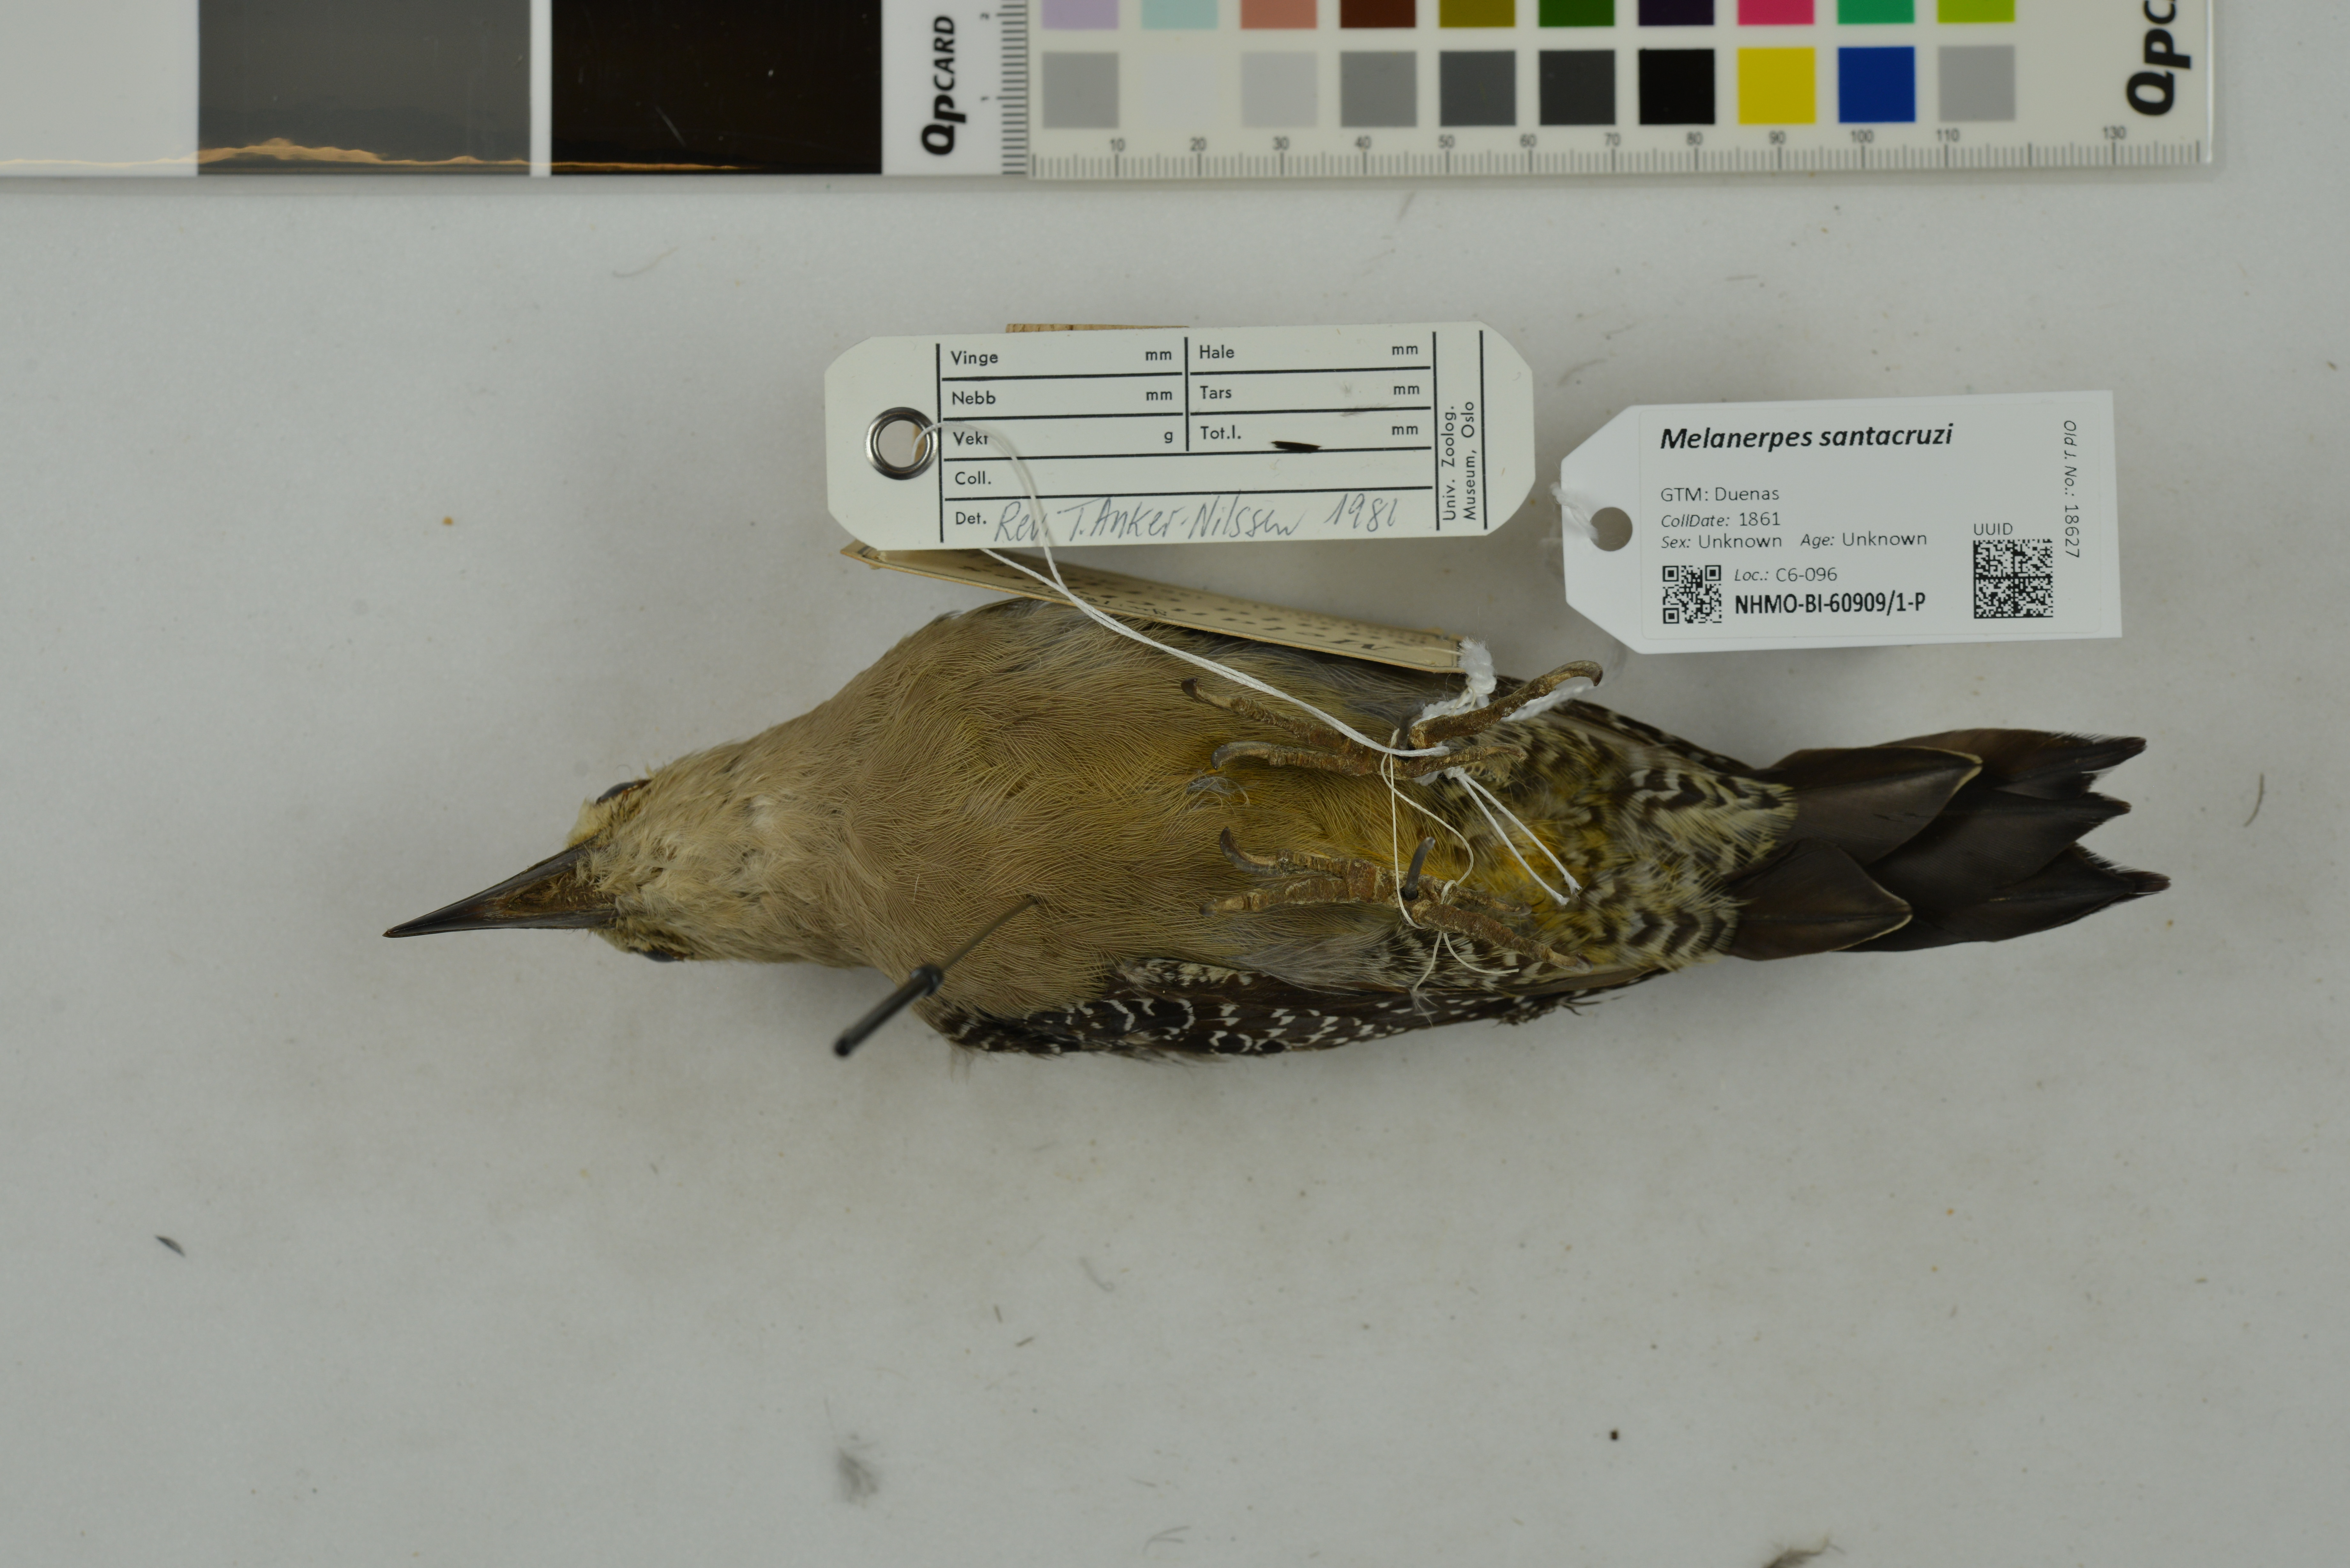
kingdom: Animalia
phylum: Chordata
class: Aves
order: Piciformes
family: Picidae
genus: Melanerpes
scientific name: Melanerpes santacruzi
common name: Velasquez's woodpecker
